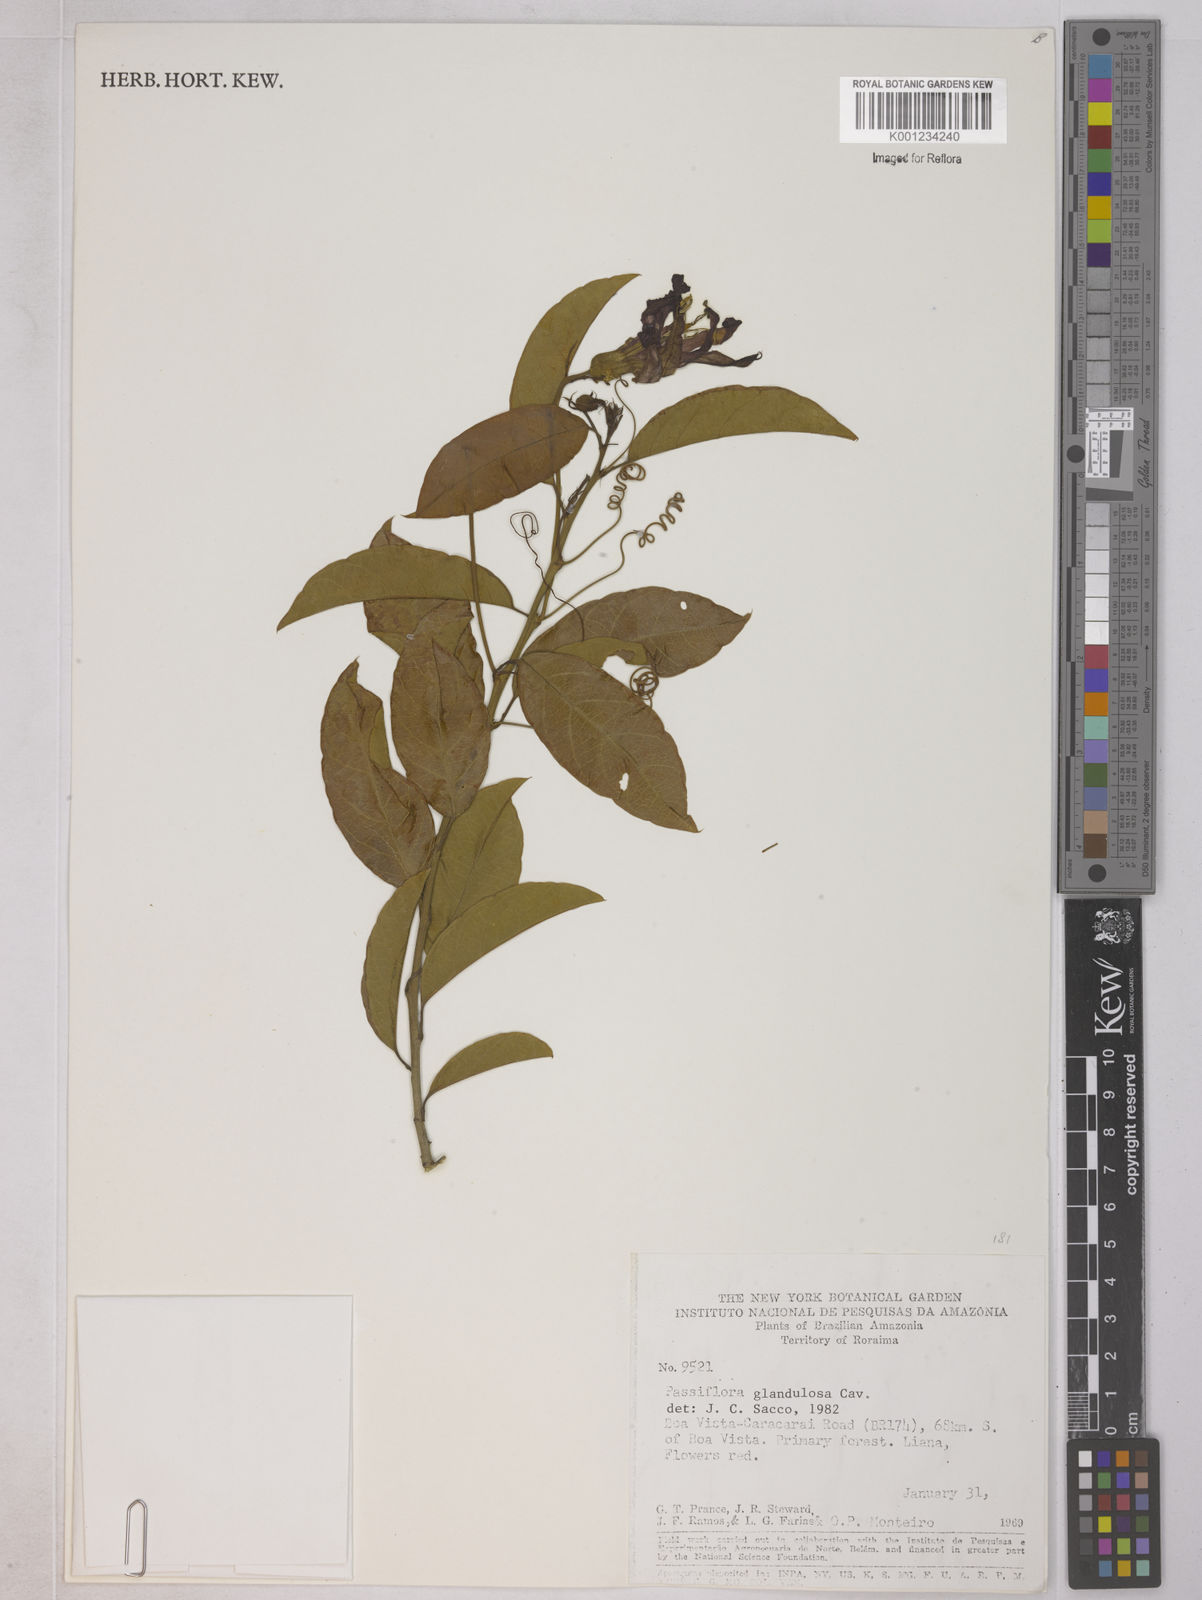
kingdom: Plantae
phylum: Tracheophyta
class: Magnoliopsida
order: Malpighiales
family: Passifloraceae
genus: Passiflora
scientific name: Passiflora glandulosa
